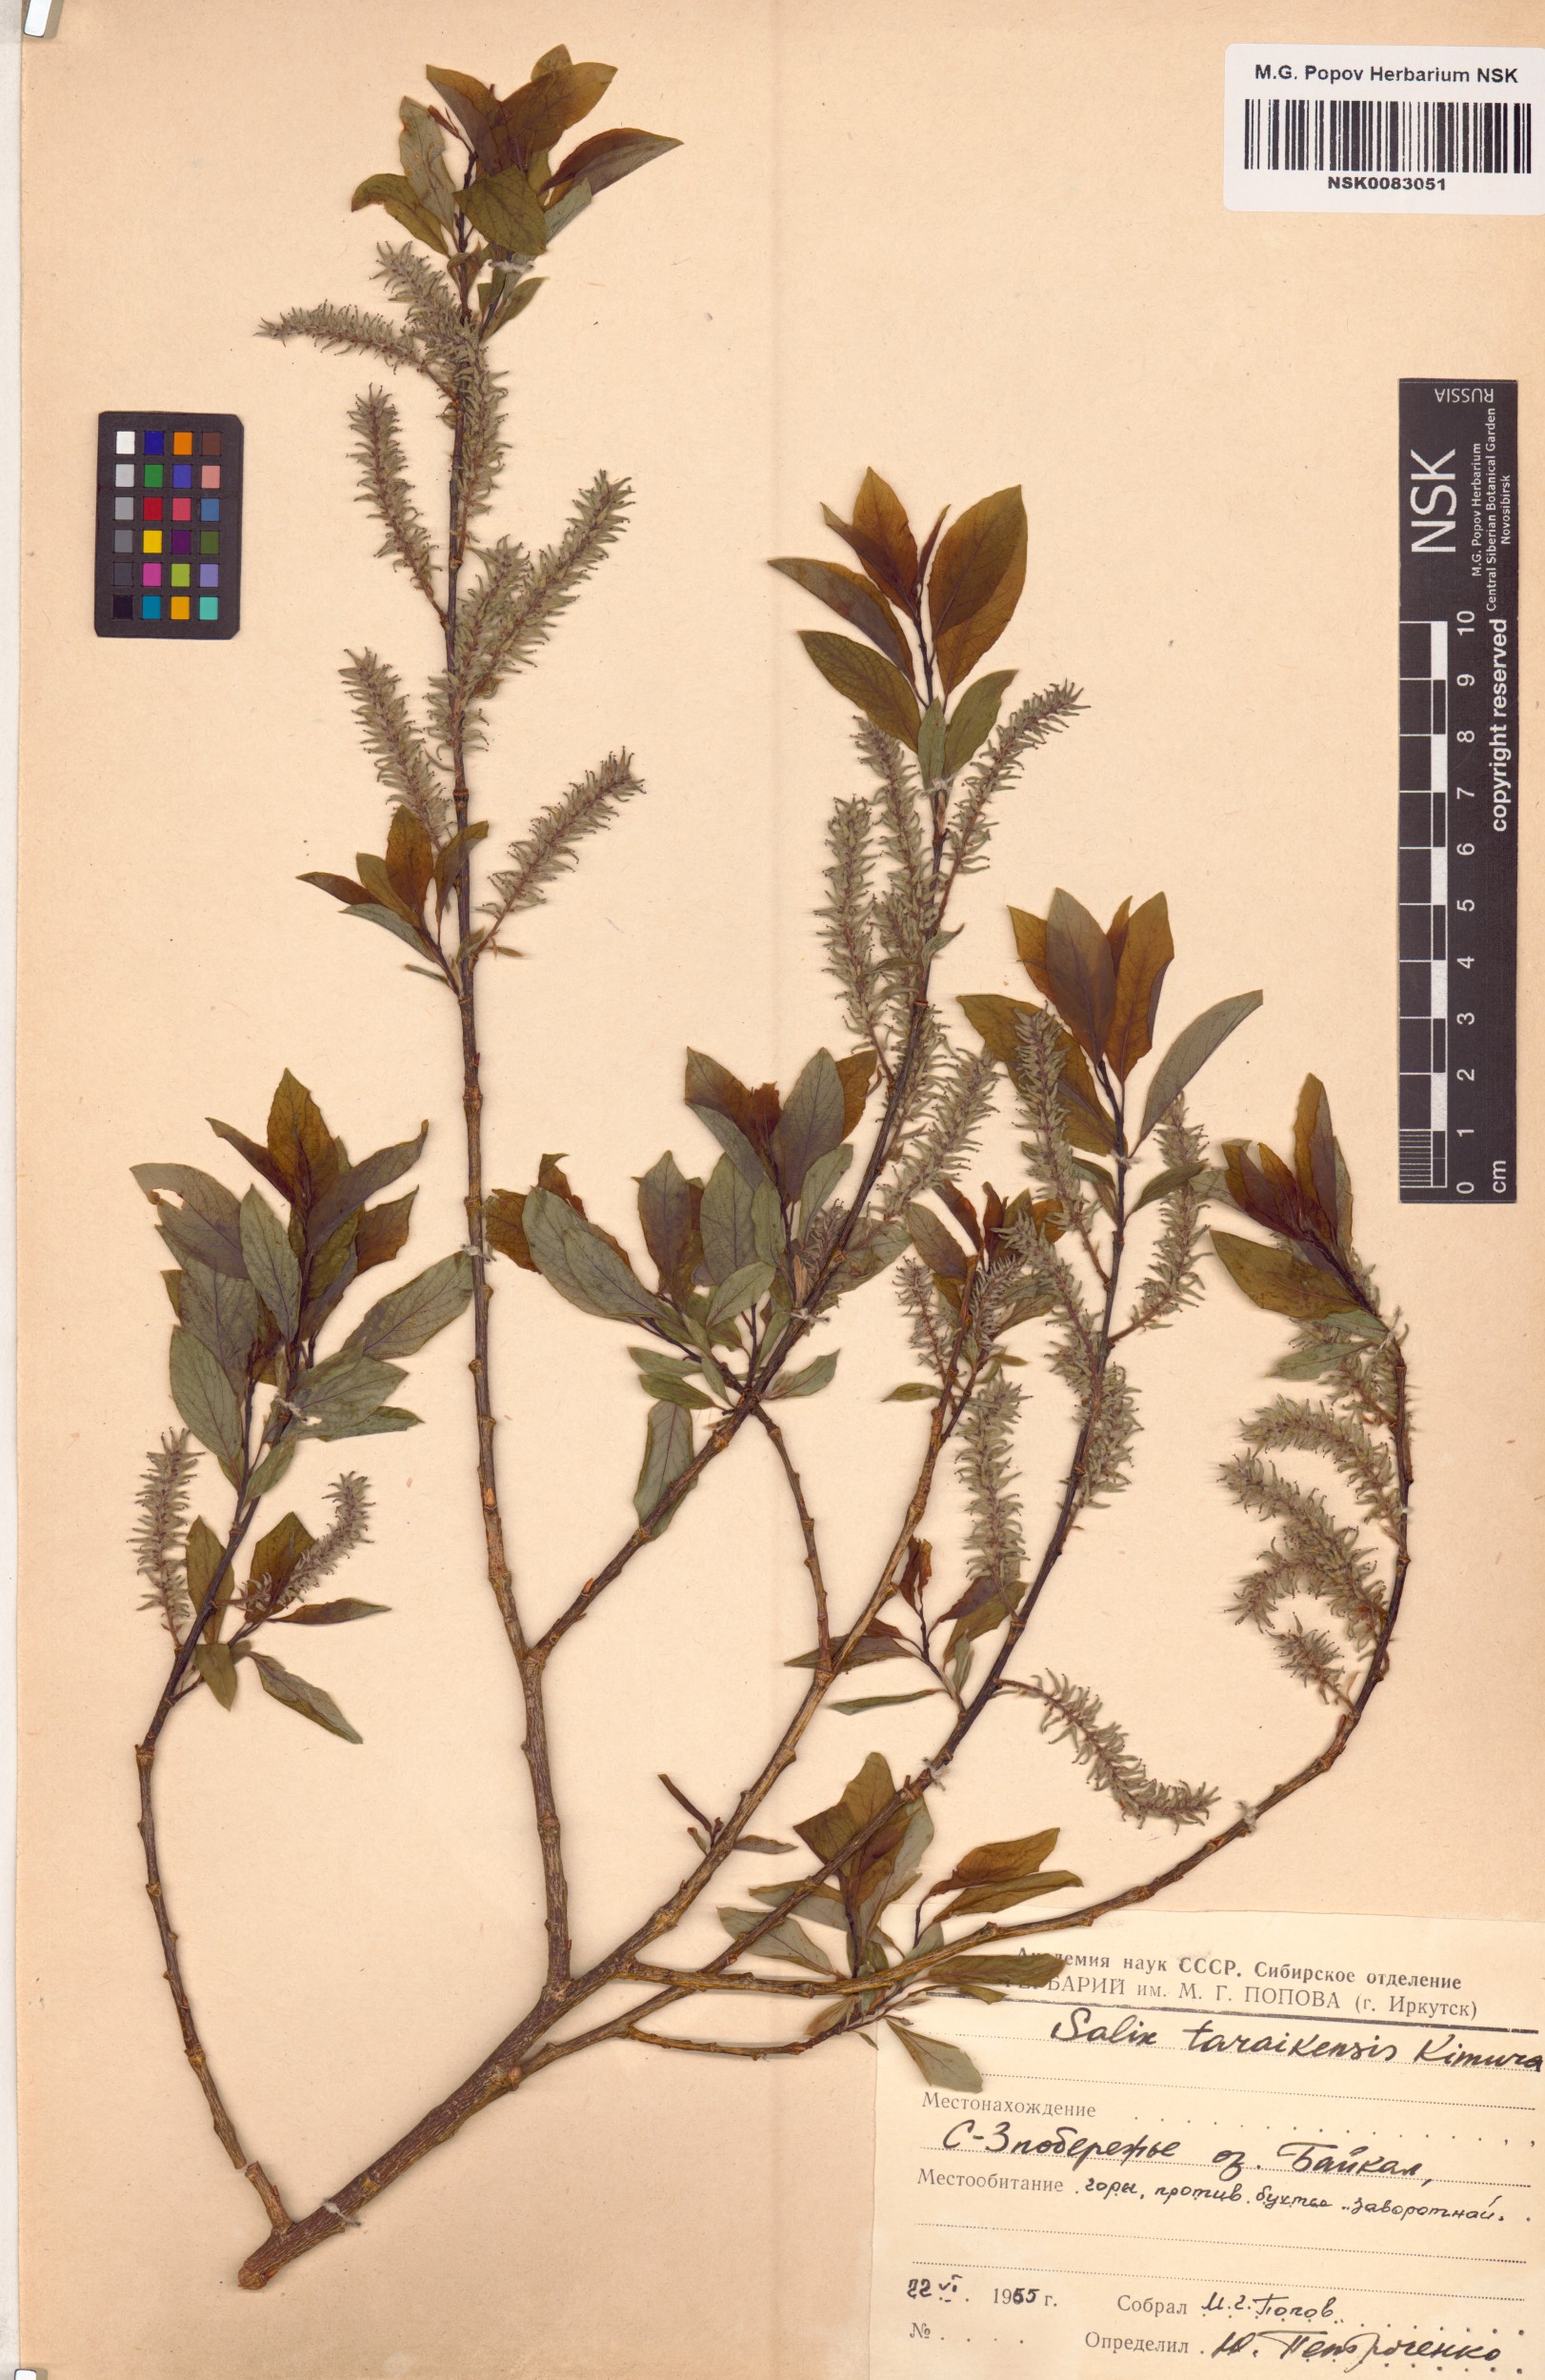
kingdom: Plantae
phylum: Tracheophyta
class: Magnoliopsida
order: Malpighiales
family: Salicaceae
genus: Salix
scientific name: Salix taraikensis
